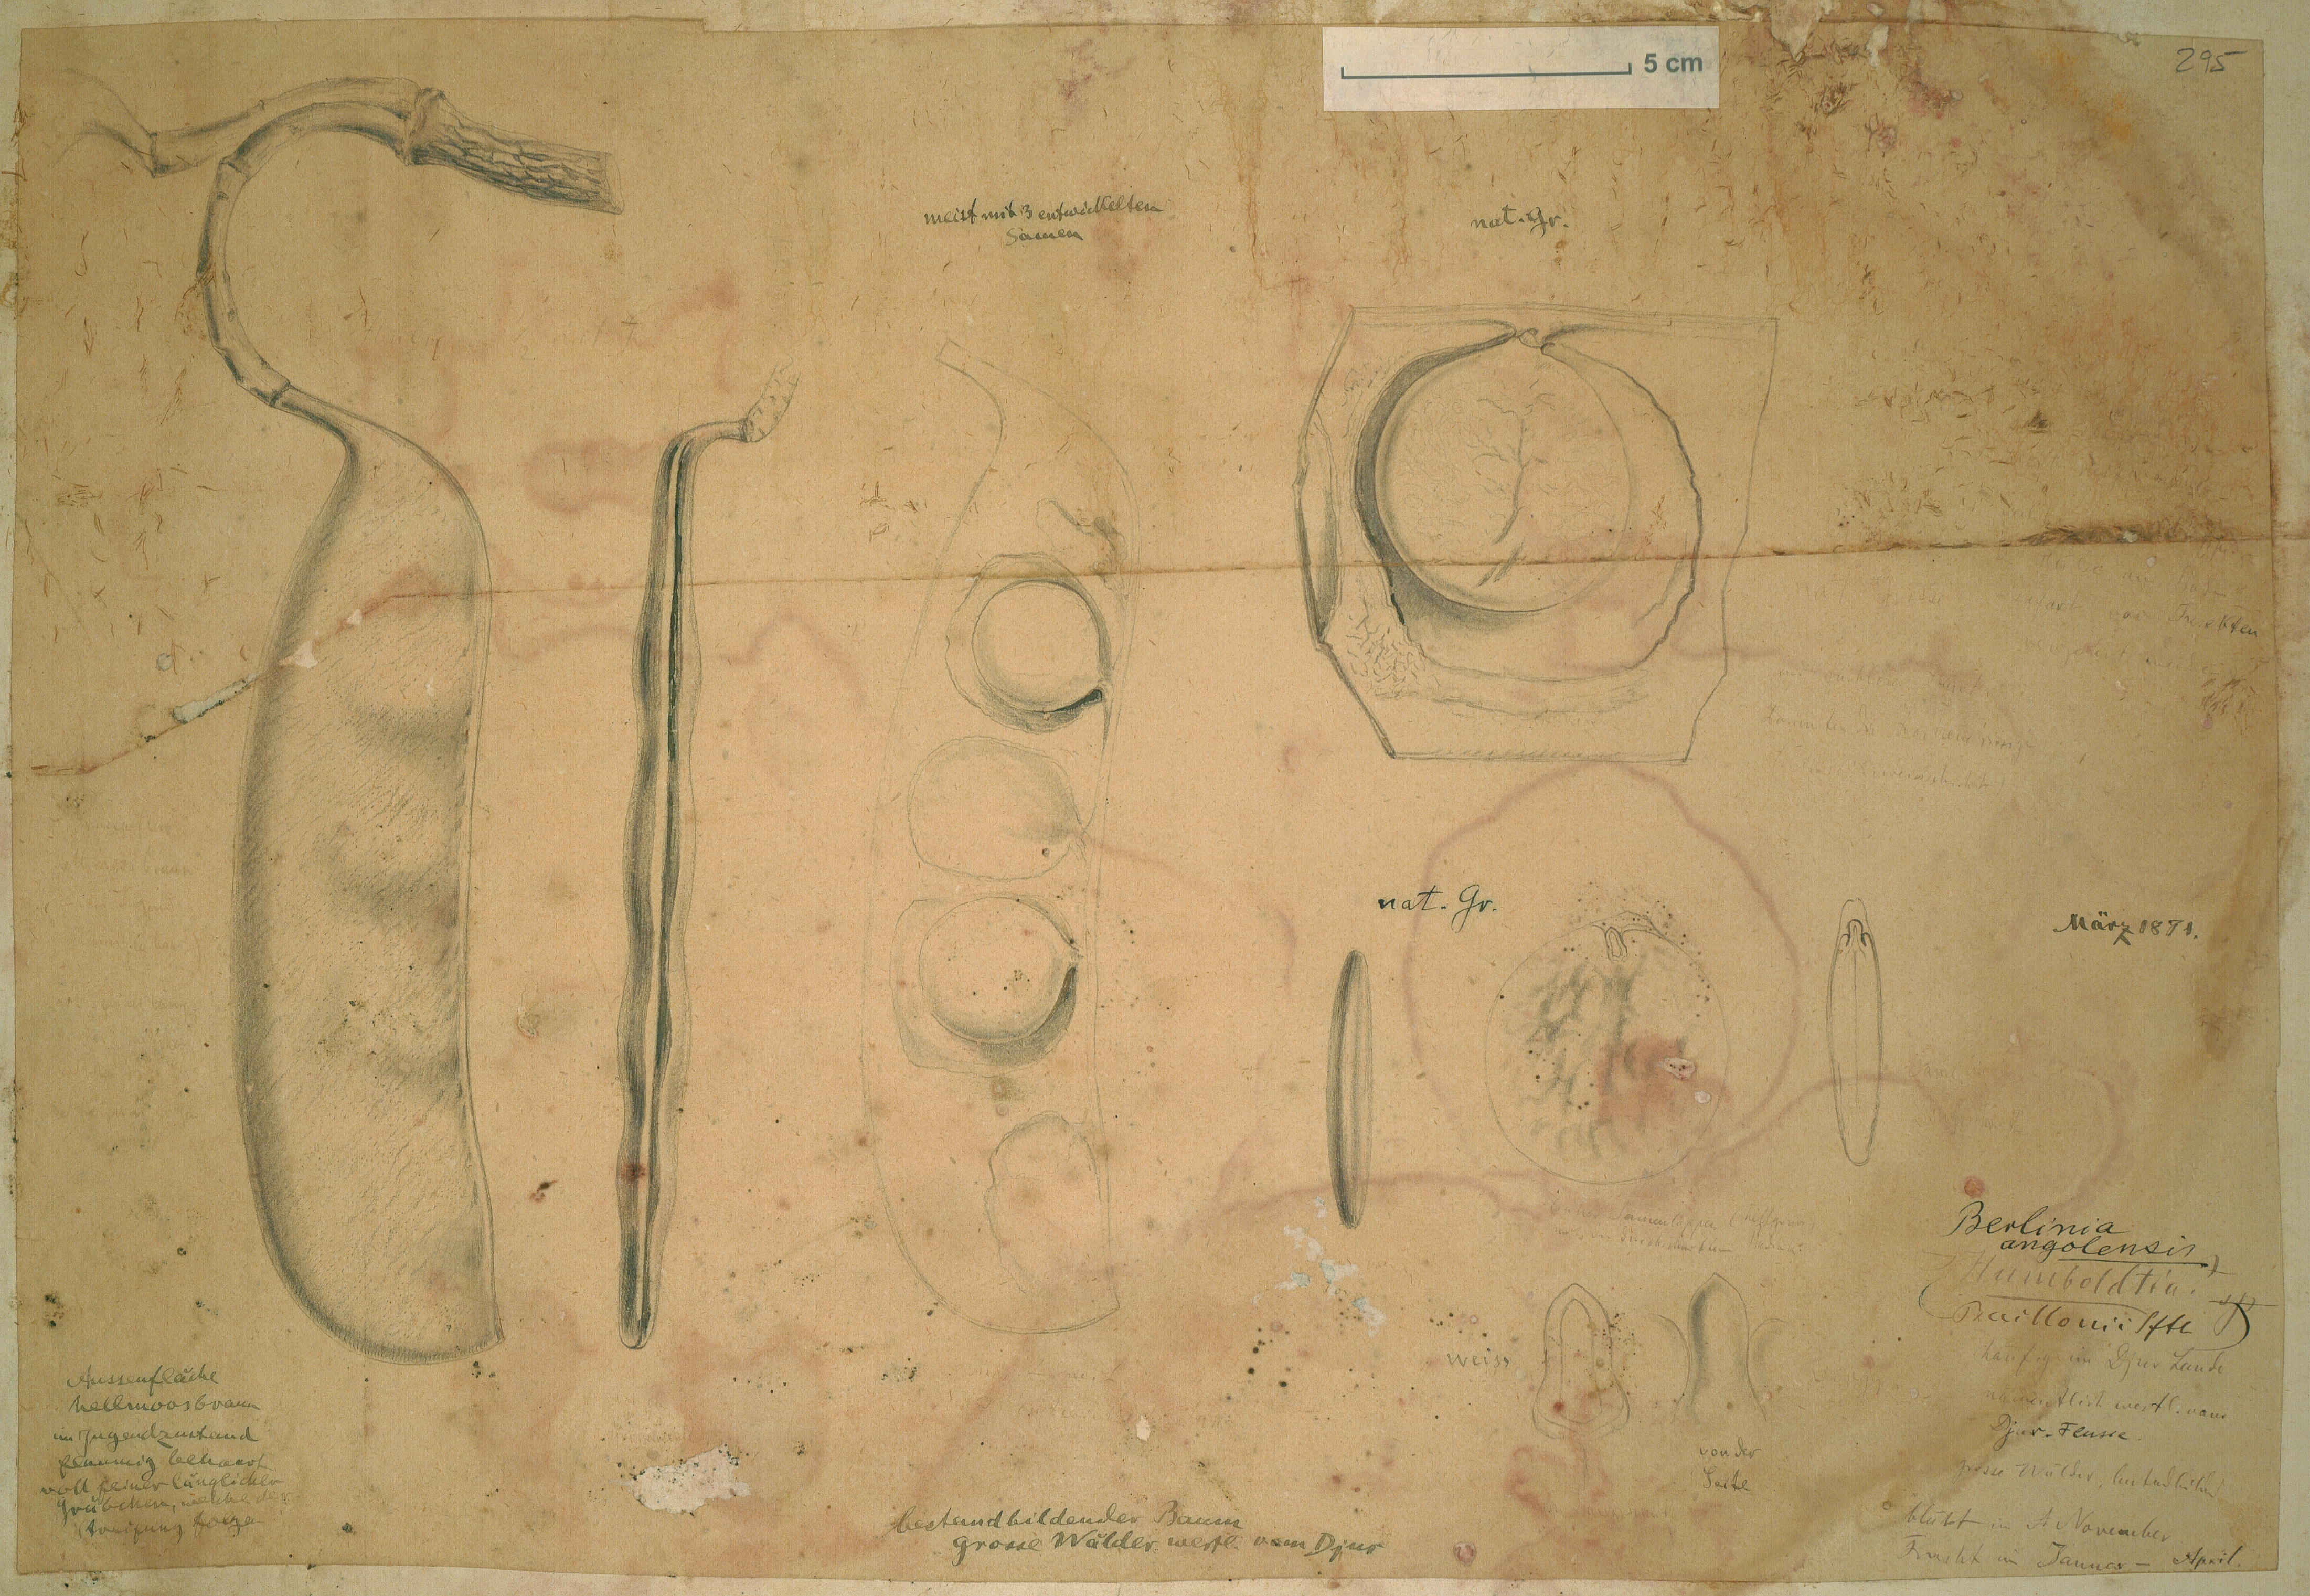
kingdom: Plantae
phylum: Tracheophyta
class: Magnoliopsida
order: Fabales
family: Fabaceae
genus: Isoberlinia
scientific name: Isoberlinia angolensis
